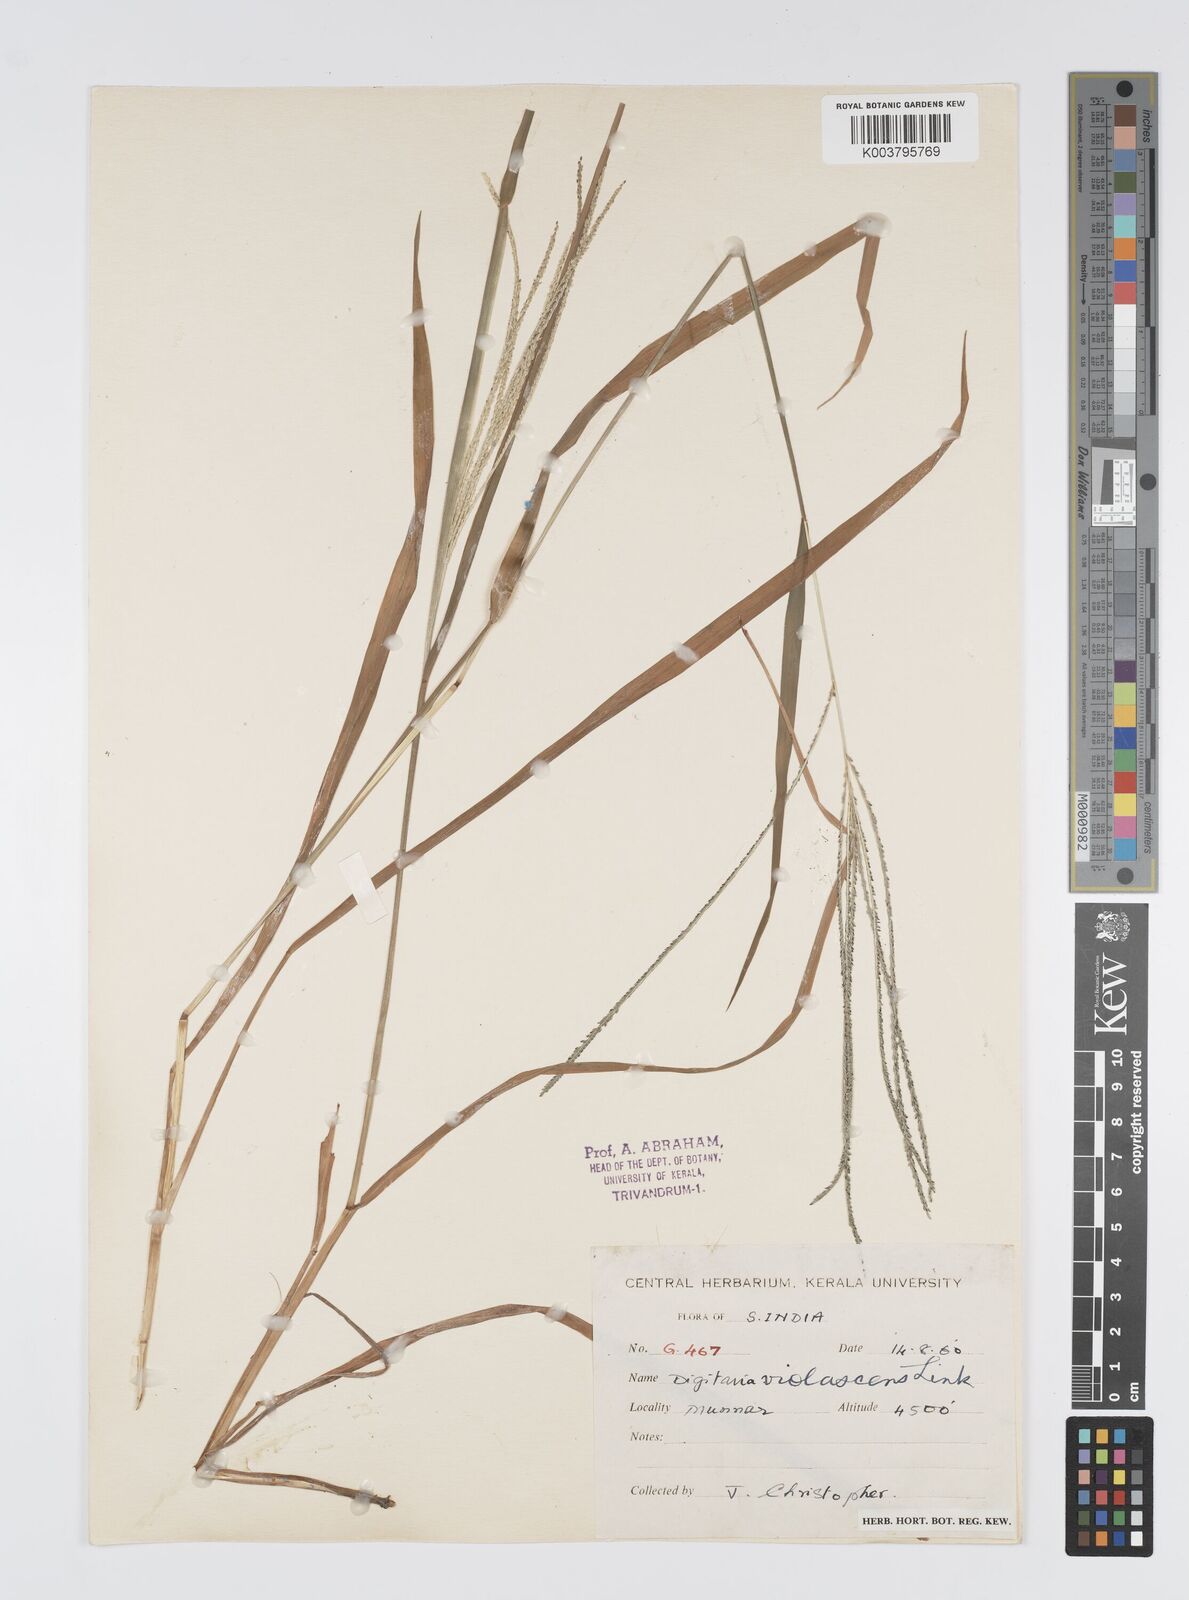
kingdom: Plantae
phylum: Tracheophyta
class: Liliopsida
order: Poales
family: Poaceae
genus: Digitaria
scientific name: Digitaria violascens
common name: Violet crabgrass
